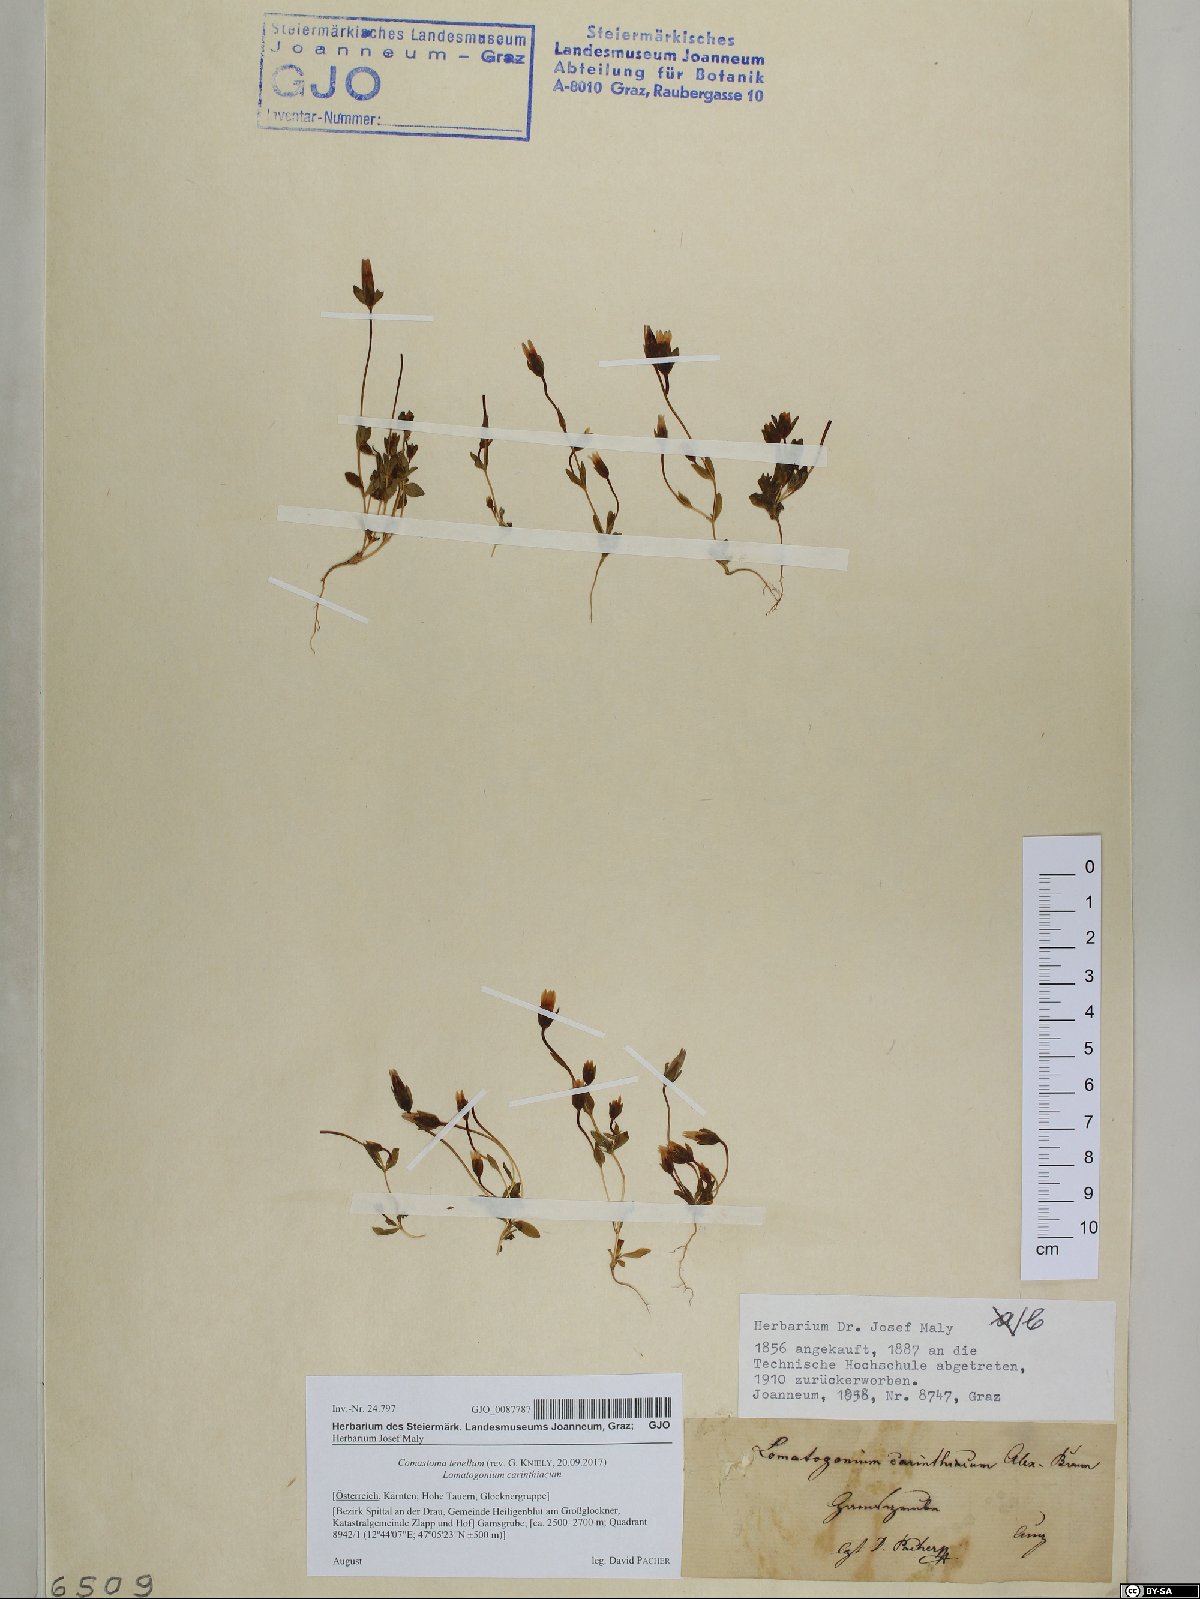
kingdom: Plantae
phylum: Tracheophyta
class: Magnoliopsida
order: Gentianales
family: Gentianaceae
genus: Comastoma
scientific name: Comastoma tenellum
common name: Dane's dwarf gentian
